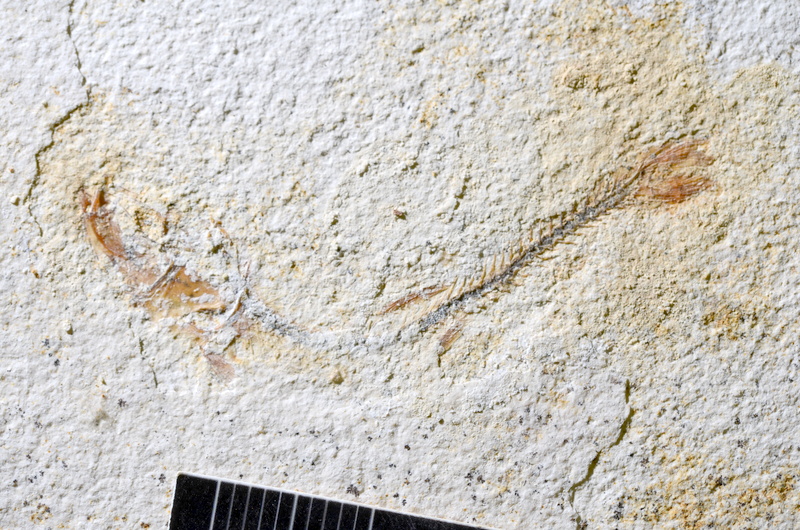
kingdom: Animalia
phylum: Chordata
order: Salmoniformes
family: Orthogonikleithridae
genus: Orthogonikleithrus
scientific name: Orthogonikleithrus hoelli
